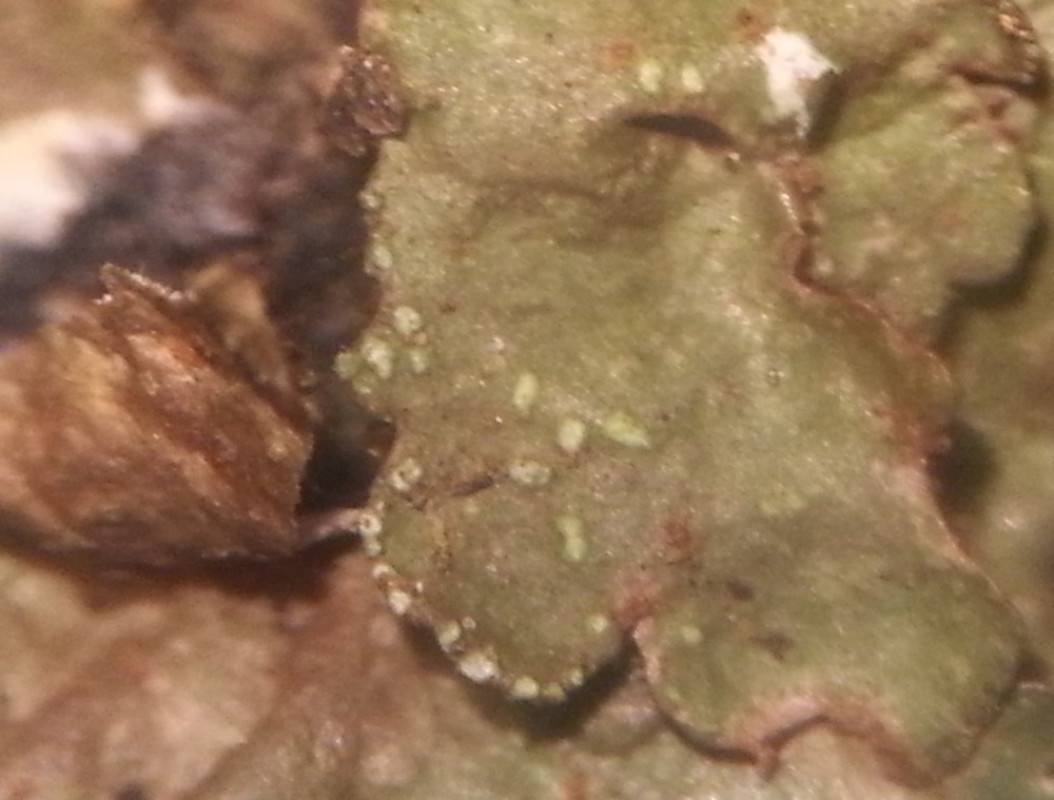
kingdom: Fungi
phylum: Ascomycota
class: Lecanoromycetes
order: Lecanorales
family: Parmeliaceae
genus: Melanelixia
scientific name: Melanelixia subaurifera
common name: guldpudret skållav
